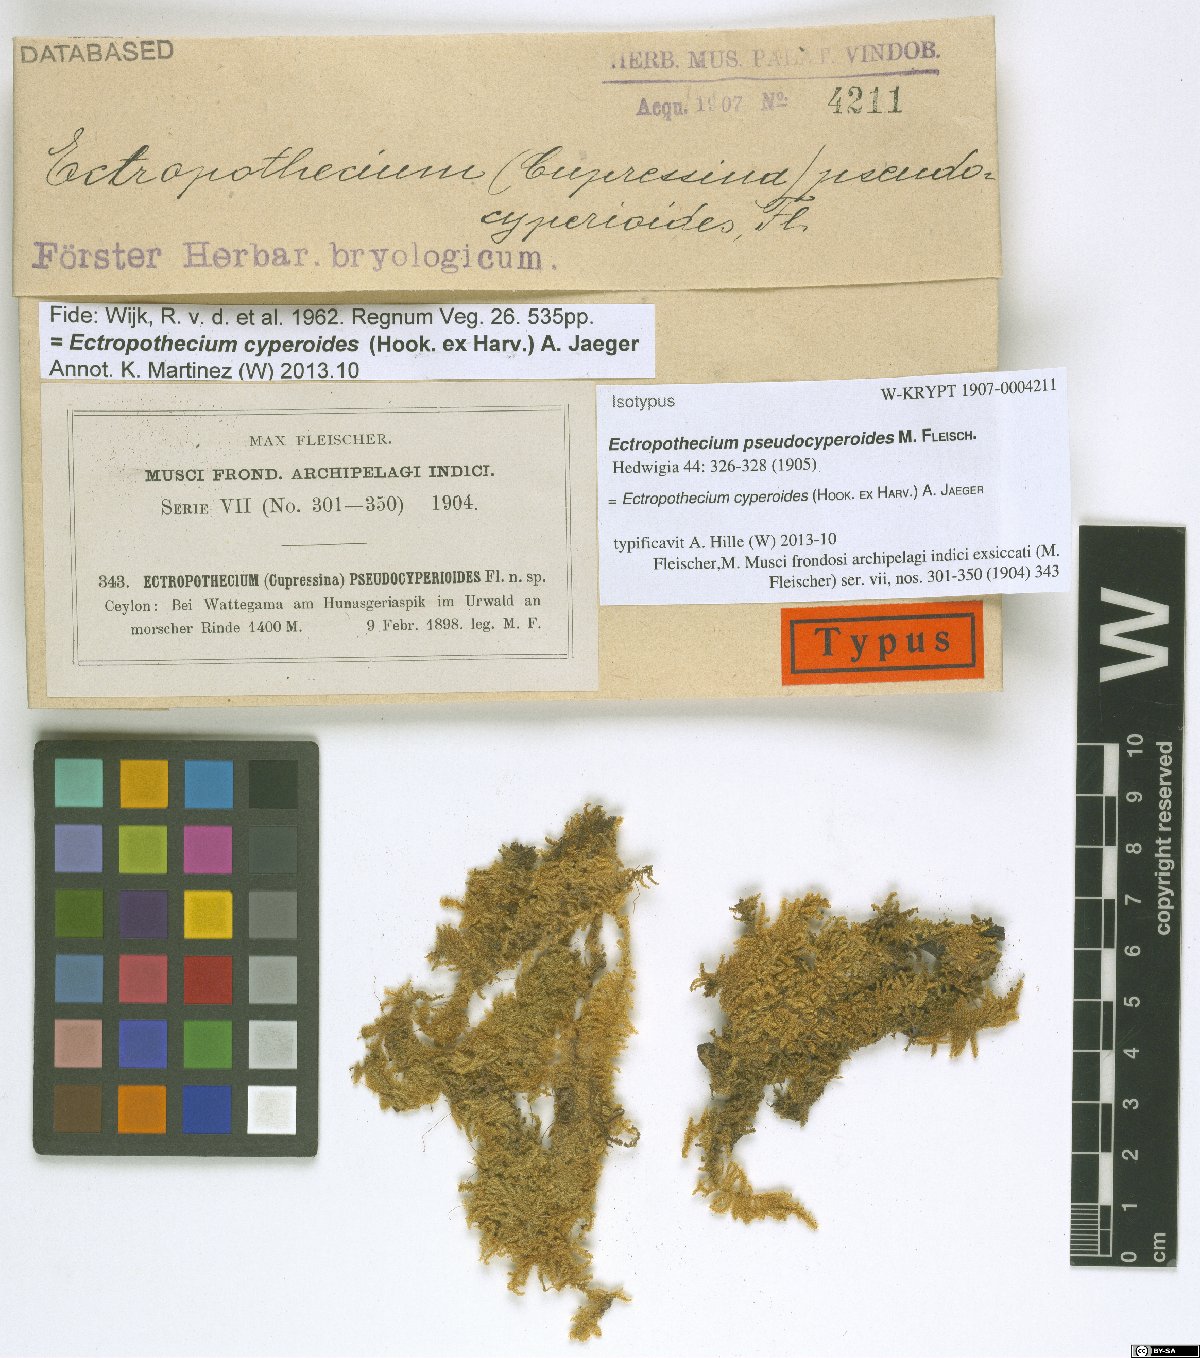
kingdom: Plantae
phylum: Bryophyta
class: Bryopsida
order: Hypnales
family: Hypnaceae
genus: Ectropothecium
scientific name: Ectropothecium pseudocyperoides
